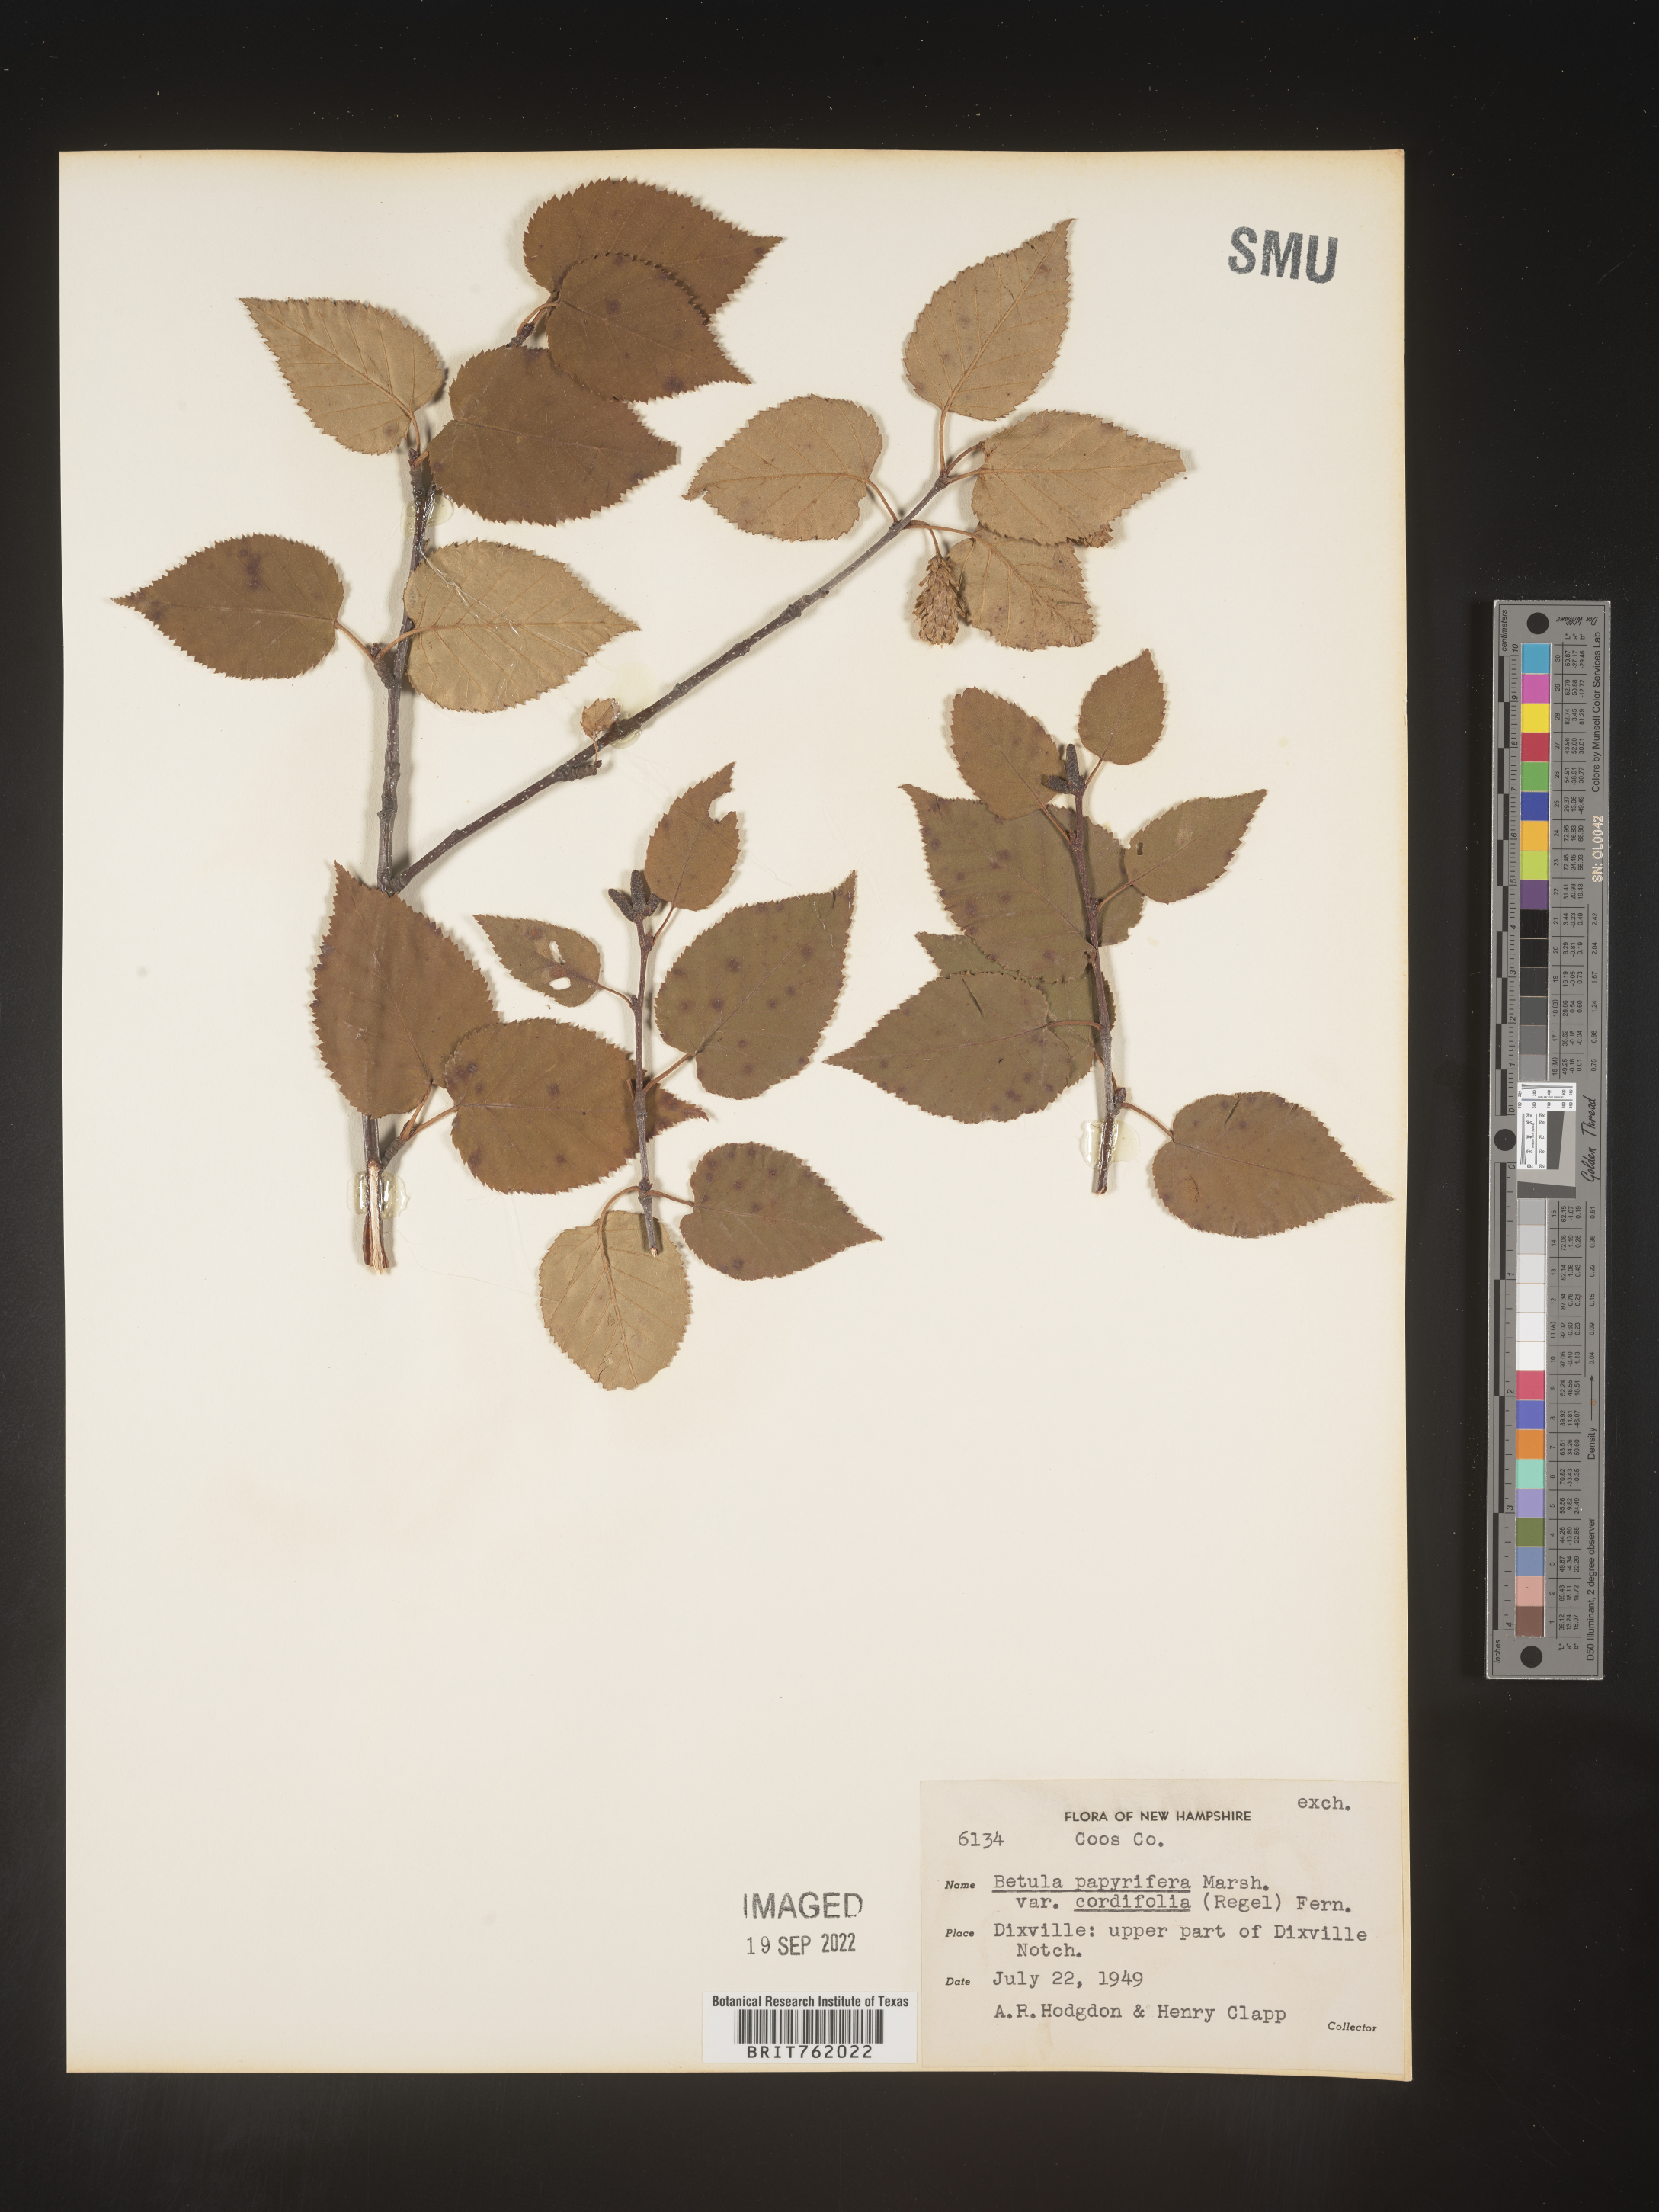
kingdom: Plantae
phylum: Tracheophyta
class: Magnoliopsida
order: Fagales
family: Betulaceae
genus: Betula
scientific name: Betula papyrifera
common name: Paper birch
